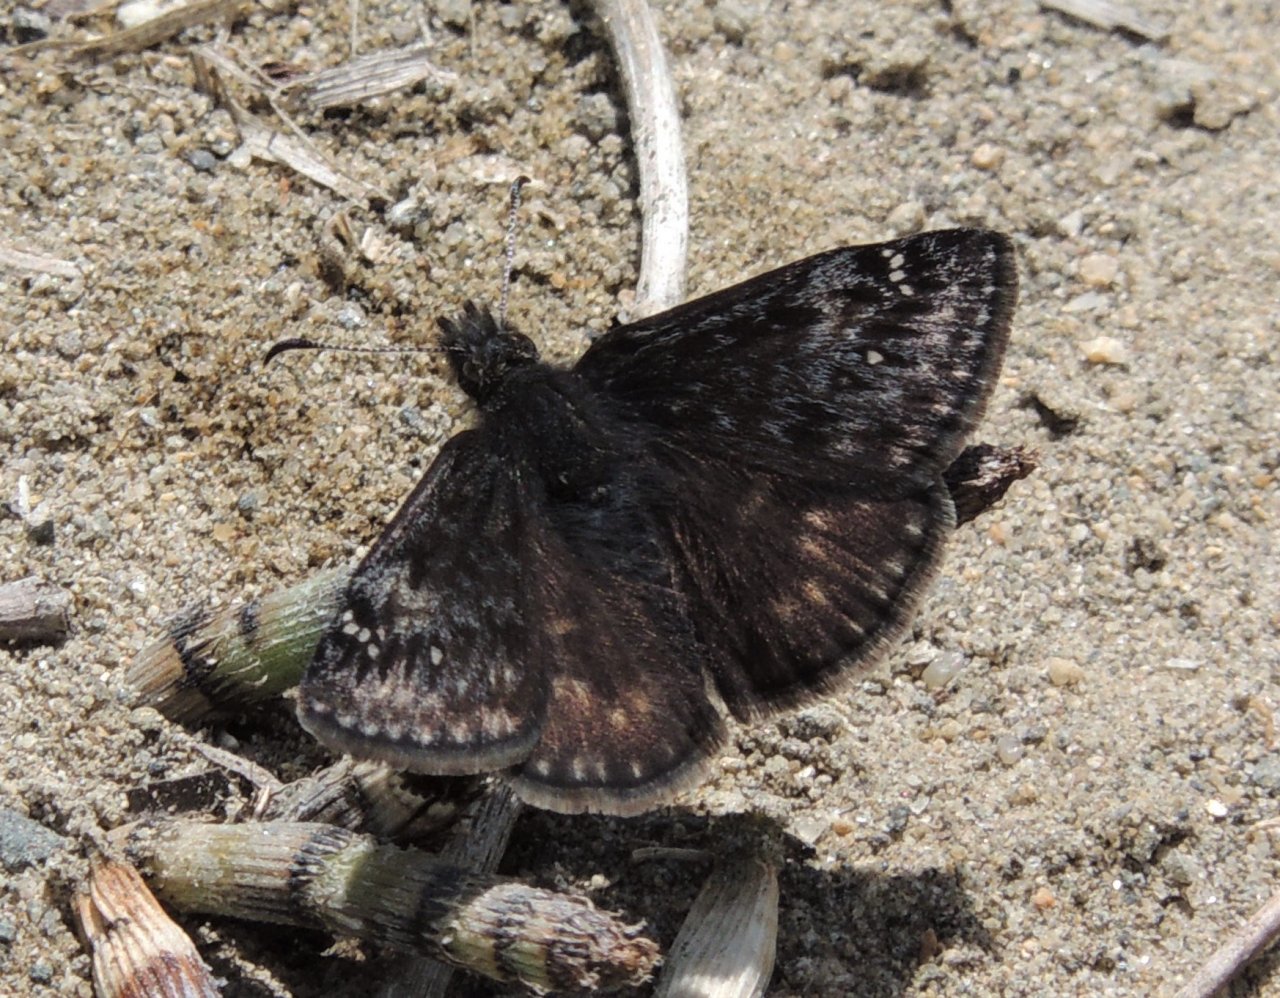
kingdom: Animalia
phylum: Arthropoda
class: Insecta
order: Lepidoptera
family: Hesperiidae
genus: Gesta
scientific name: Gesta
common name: Persius Duskywing
